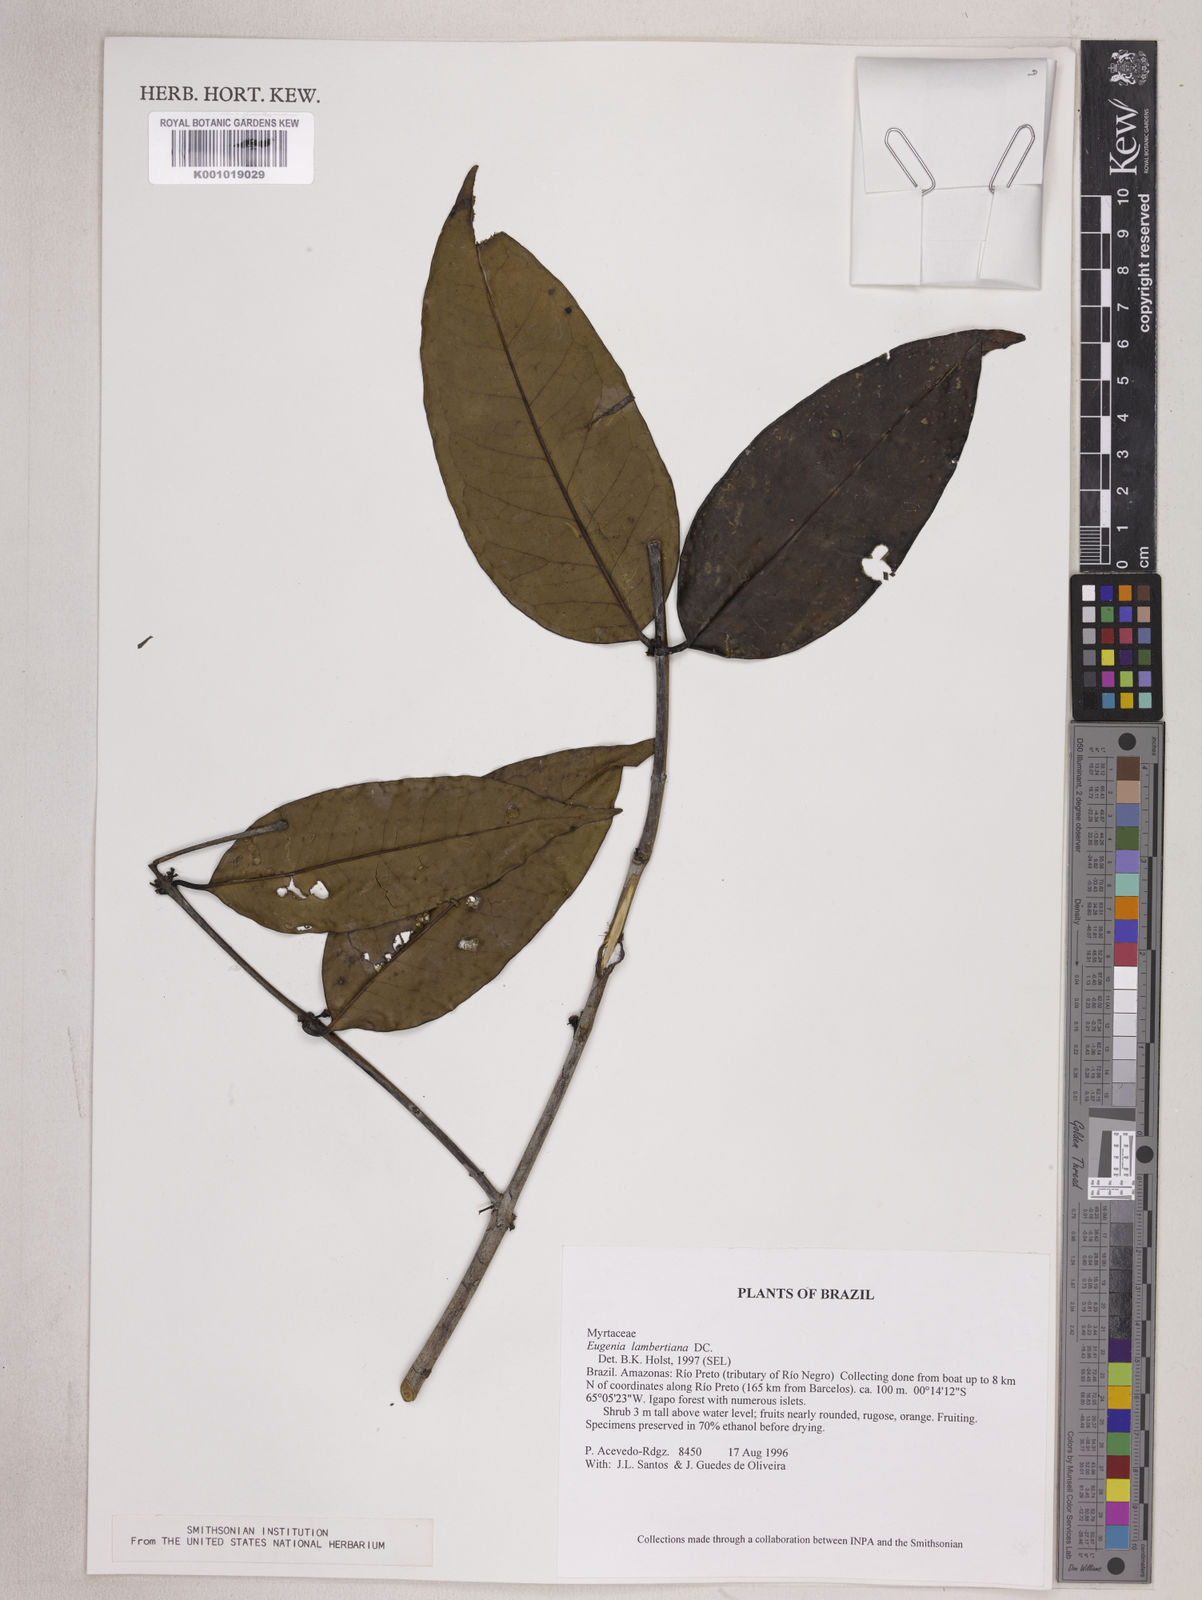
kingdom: Plantae
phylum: Tracheophyta
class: Magnoliopsida
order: Myrtales
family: Myrtaceae
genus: Eugenia
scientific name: Eugenia lambertiana
